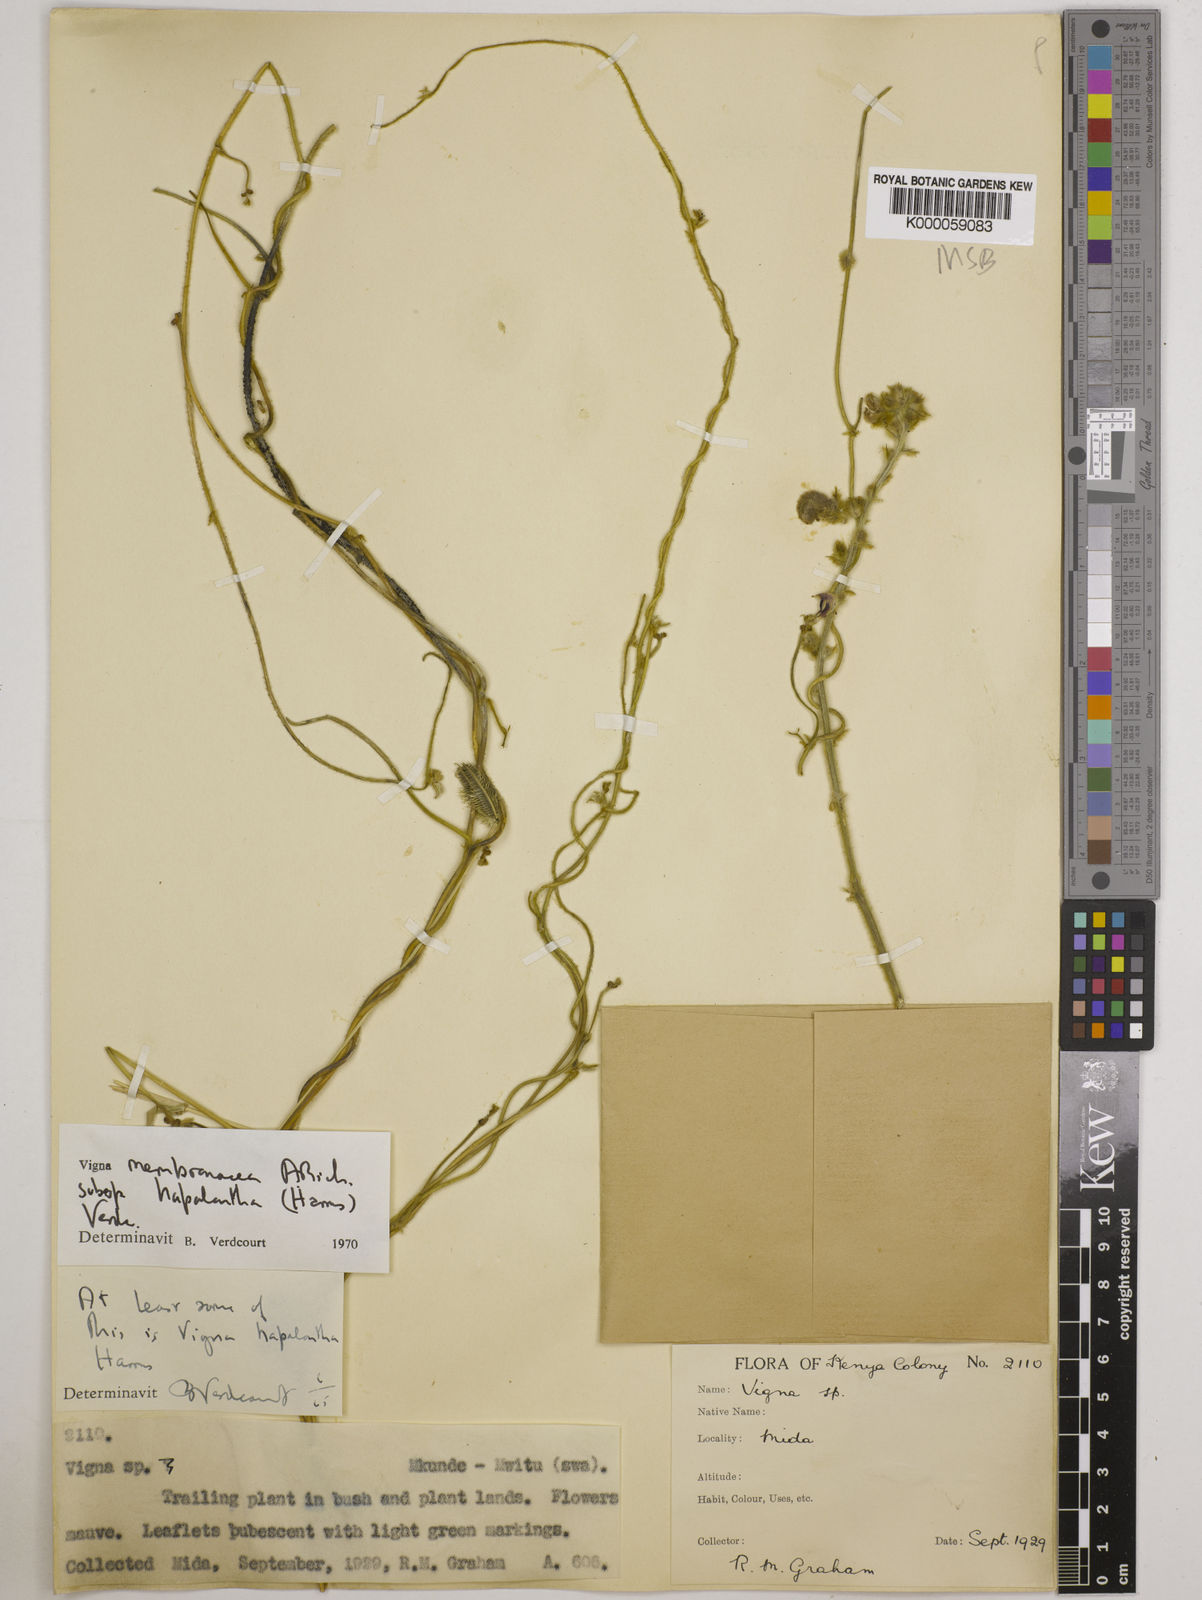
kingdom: Plantae
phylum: Tracheophyta
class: Magnoliopsida
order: Fabales
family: Fabaceae
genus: Vigna
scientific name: Vigna membranacea
